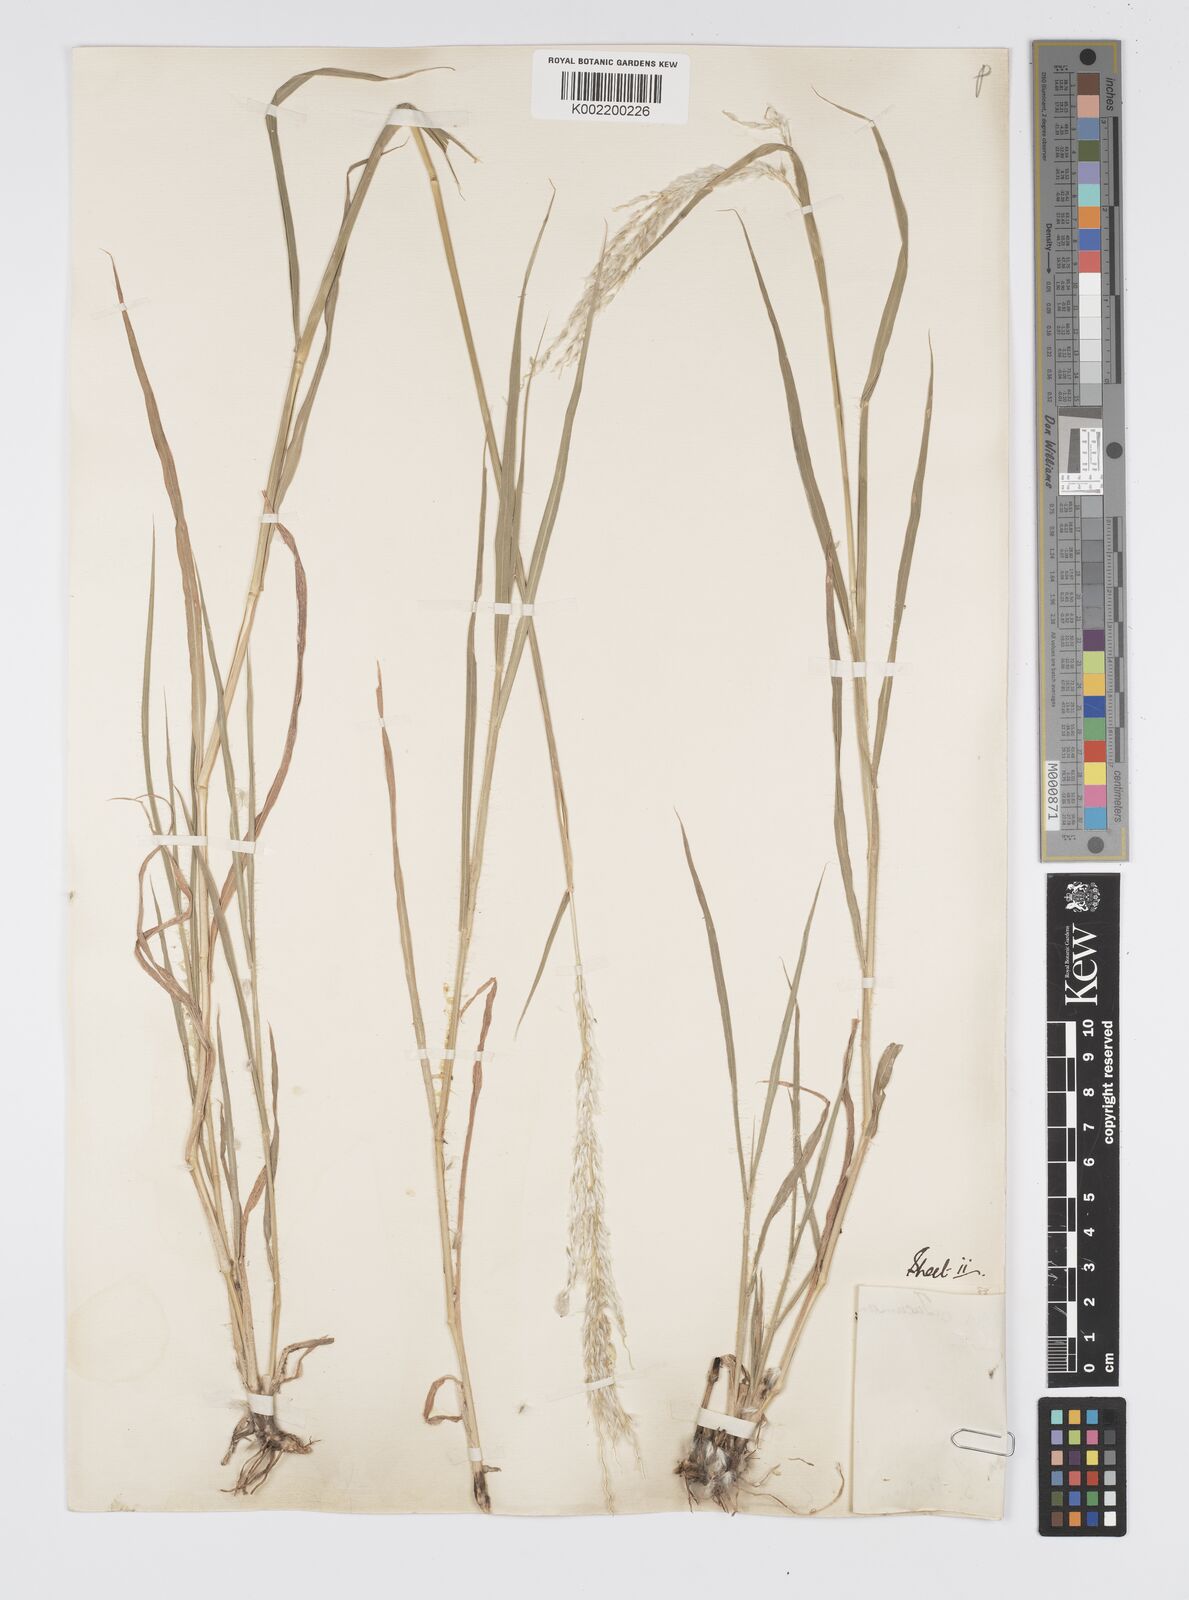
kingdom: Plantae
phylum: Tracheophyta
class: Liliopsida
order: Poales
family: Poaceae
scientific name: Poaceae
